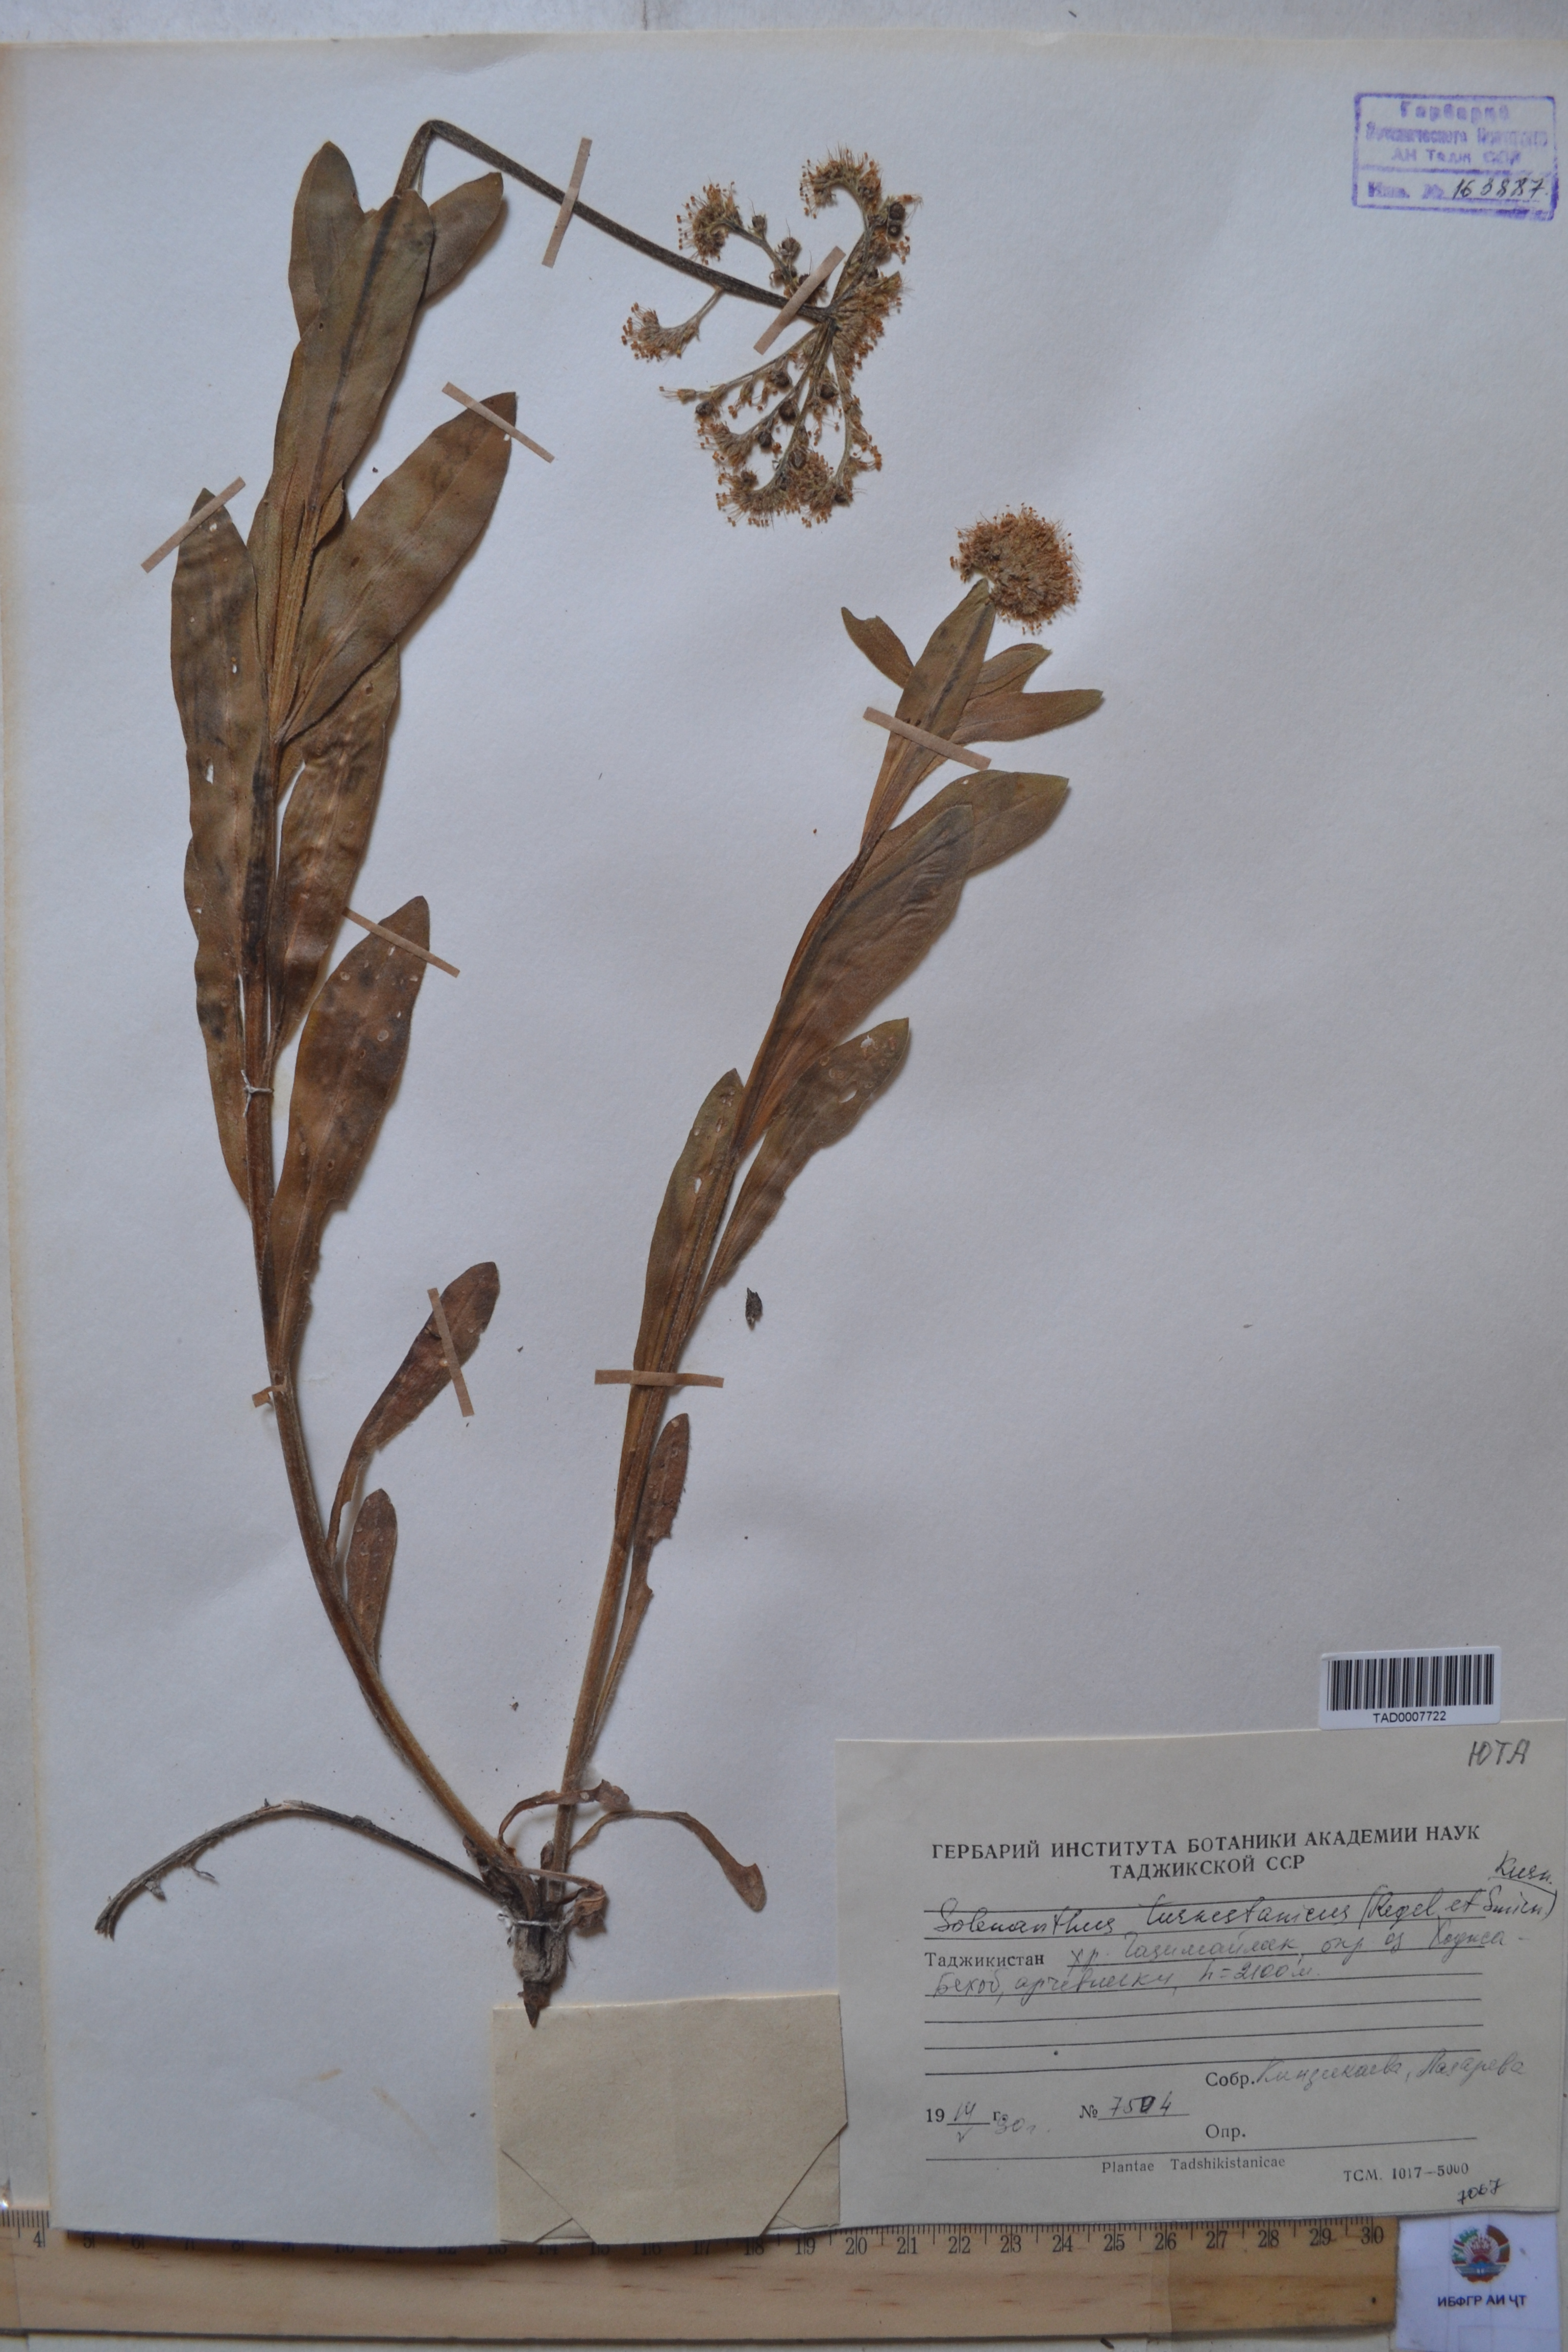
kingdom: Plantae
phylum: Tracheophyta
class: Magnoliopsida
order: Boraginales
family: Boraginaceae
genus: Solenanthus
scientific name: Solenanthus turkestanicus
